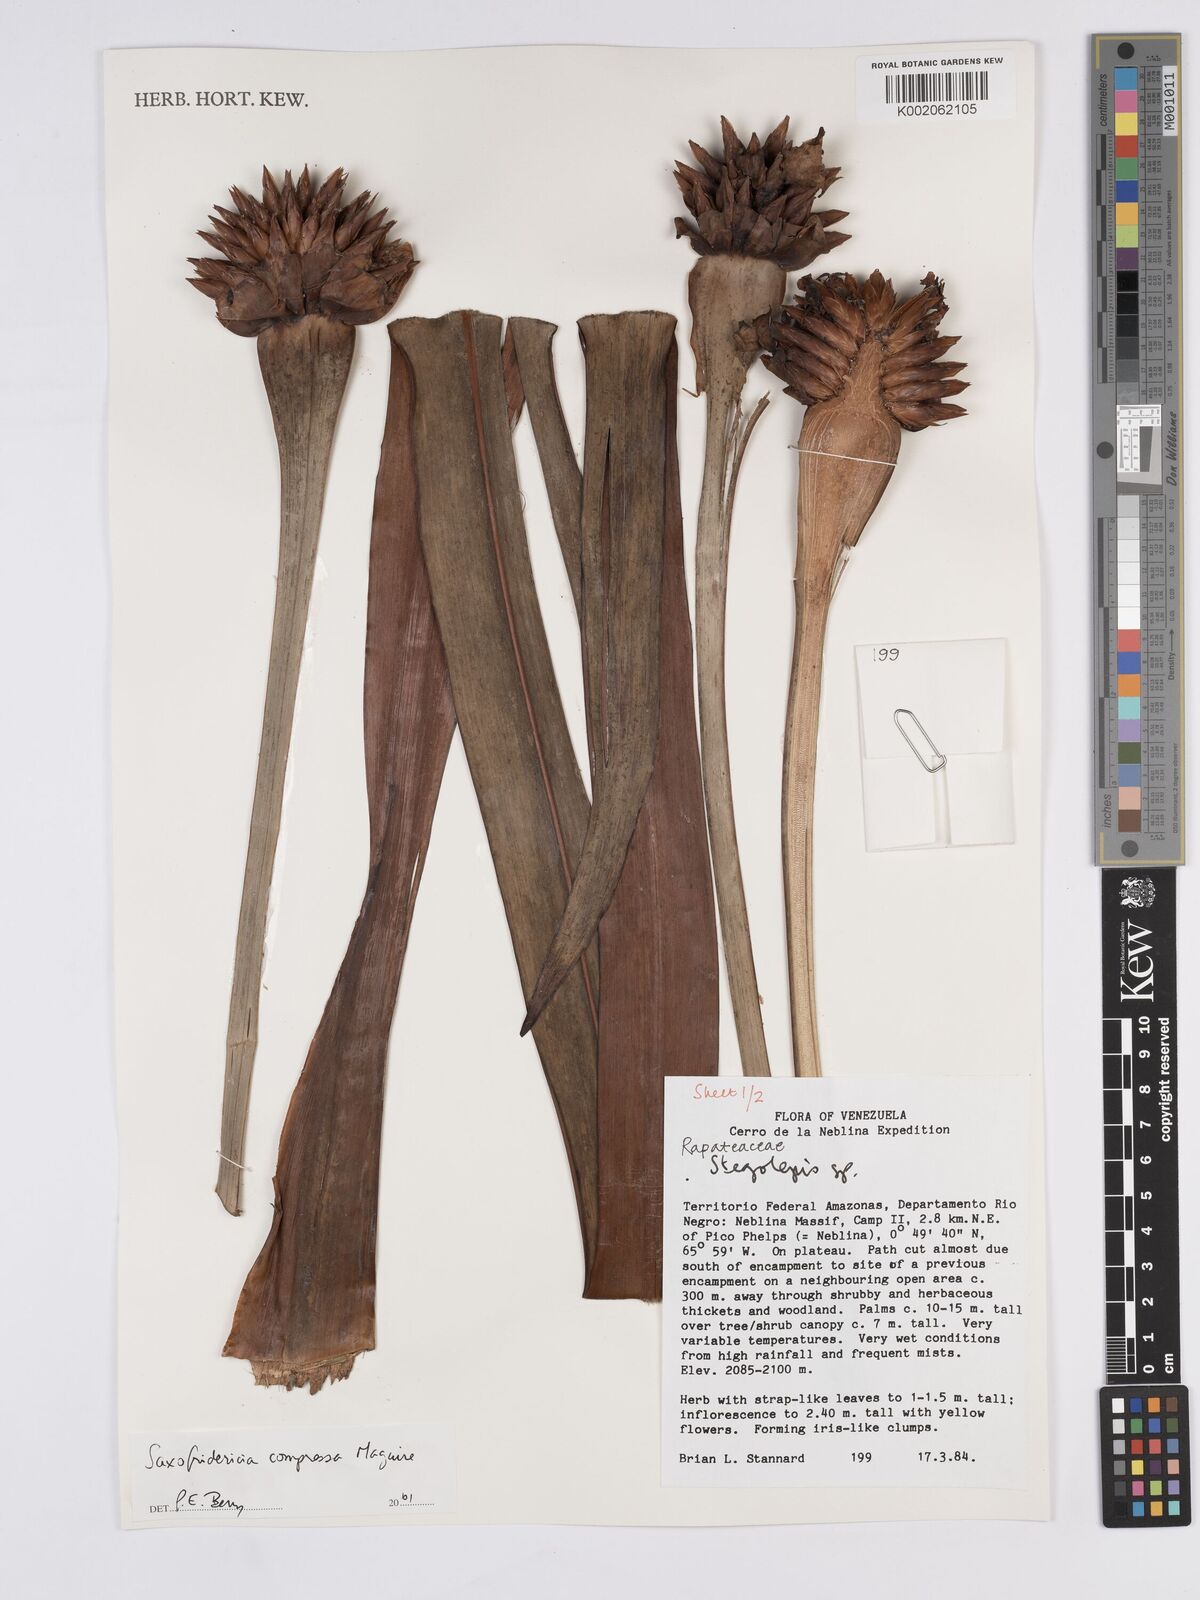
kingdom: Plantae
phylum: Tracheophyta
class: Liliopsida
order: Poales
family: Rapateaceae
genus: Saxofridericia
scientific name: Saxofridericia compressa
